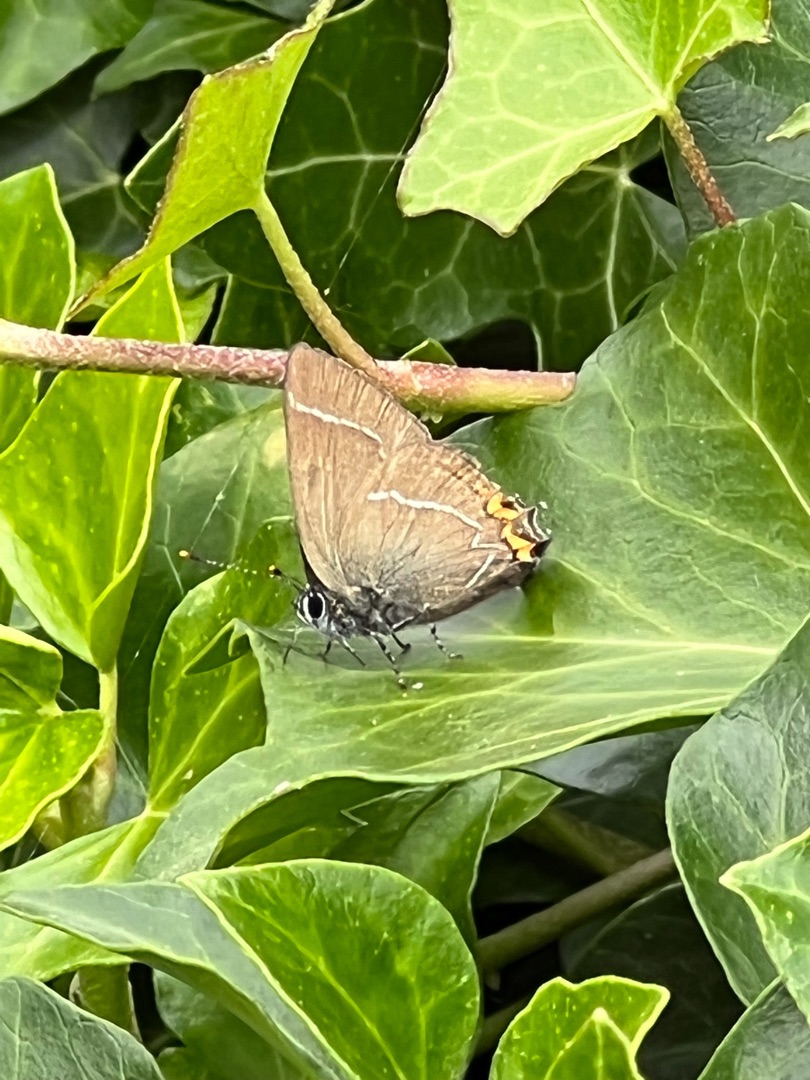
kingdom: Animalia
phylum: Arthropoda
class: Insecta
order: Lepidoptera
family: Lycaenidae
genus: Satyrium
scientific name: Satyrium w-album
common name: Det hvide W
